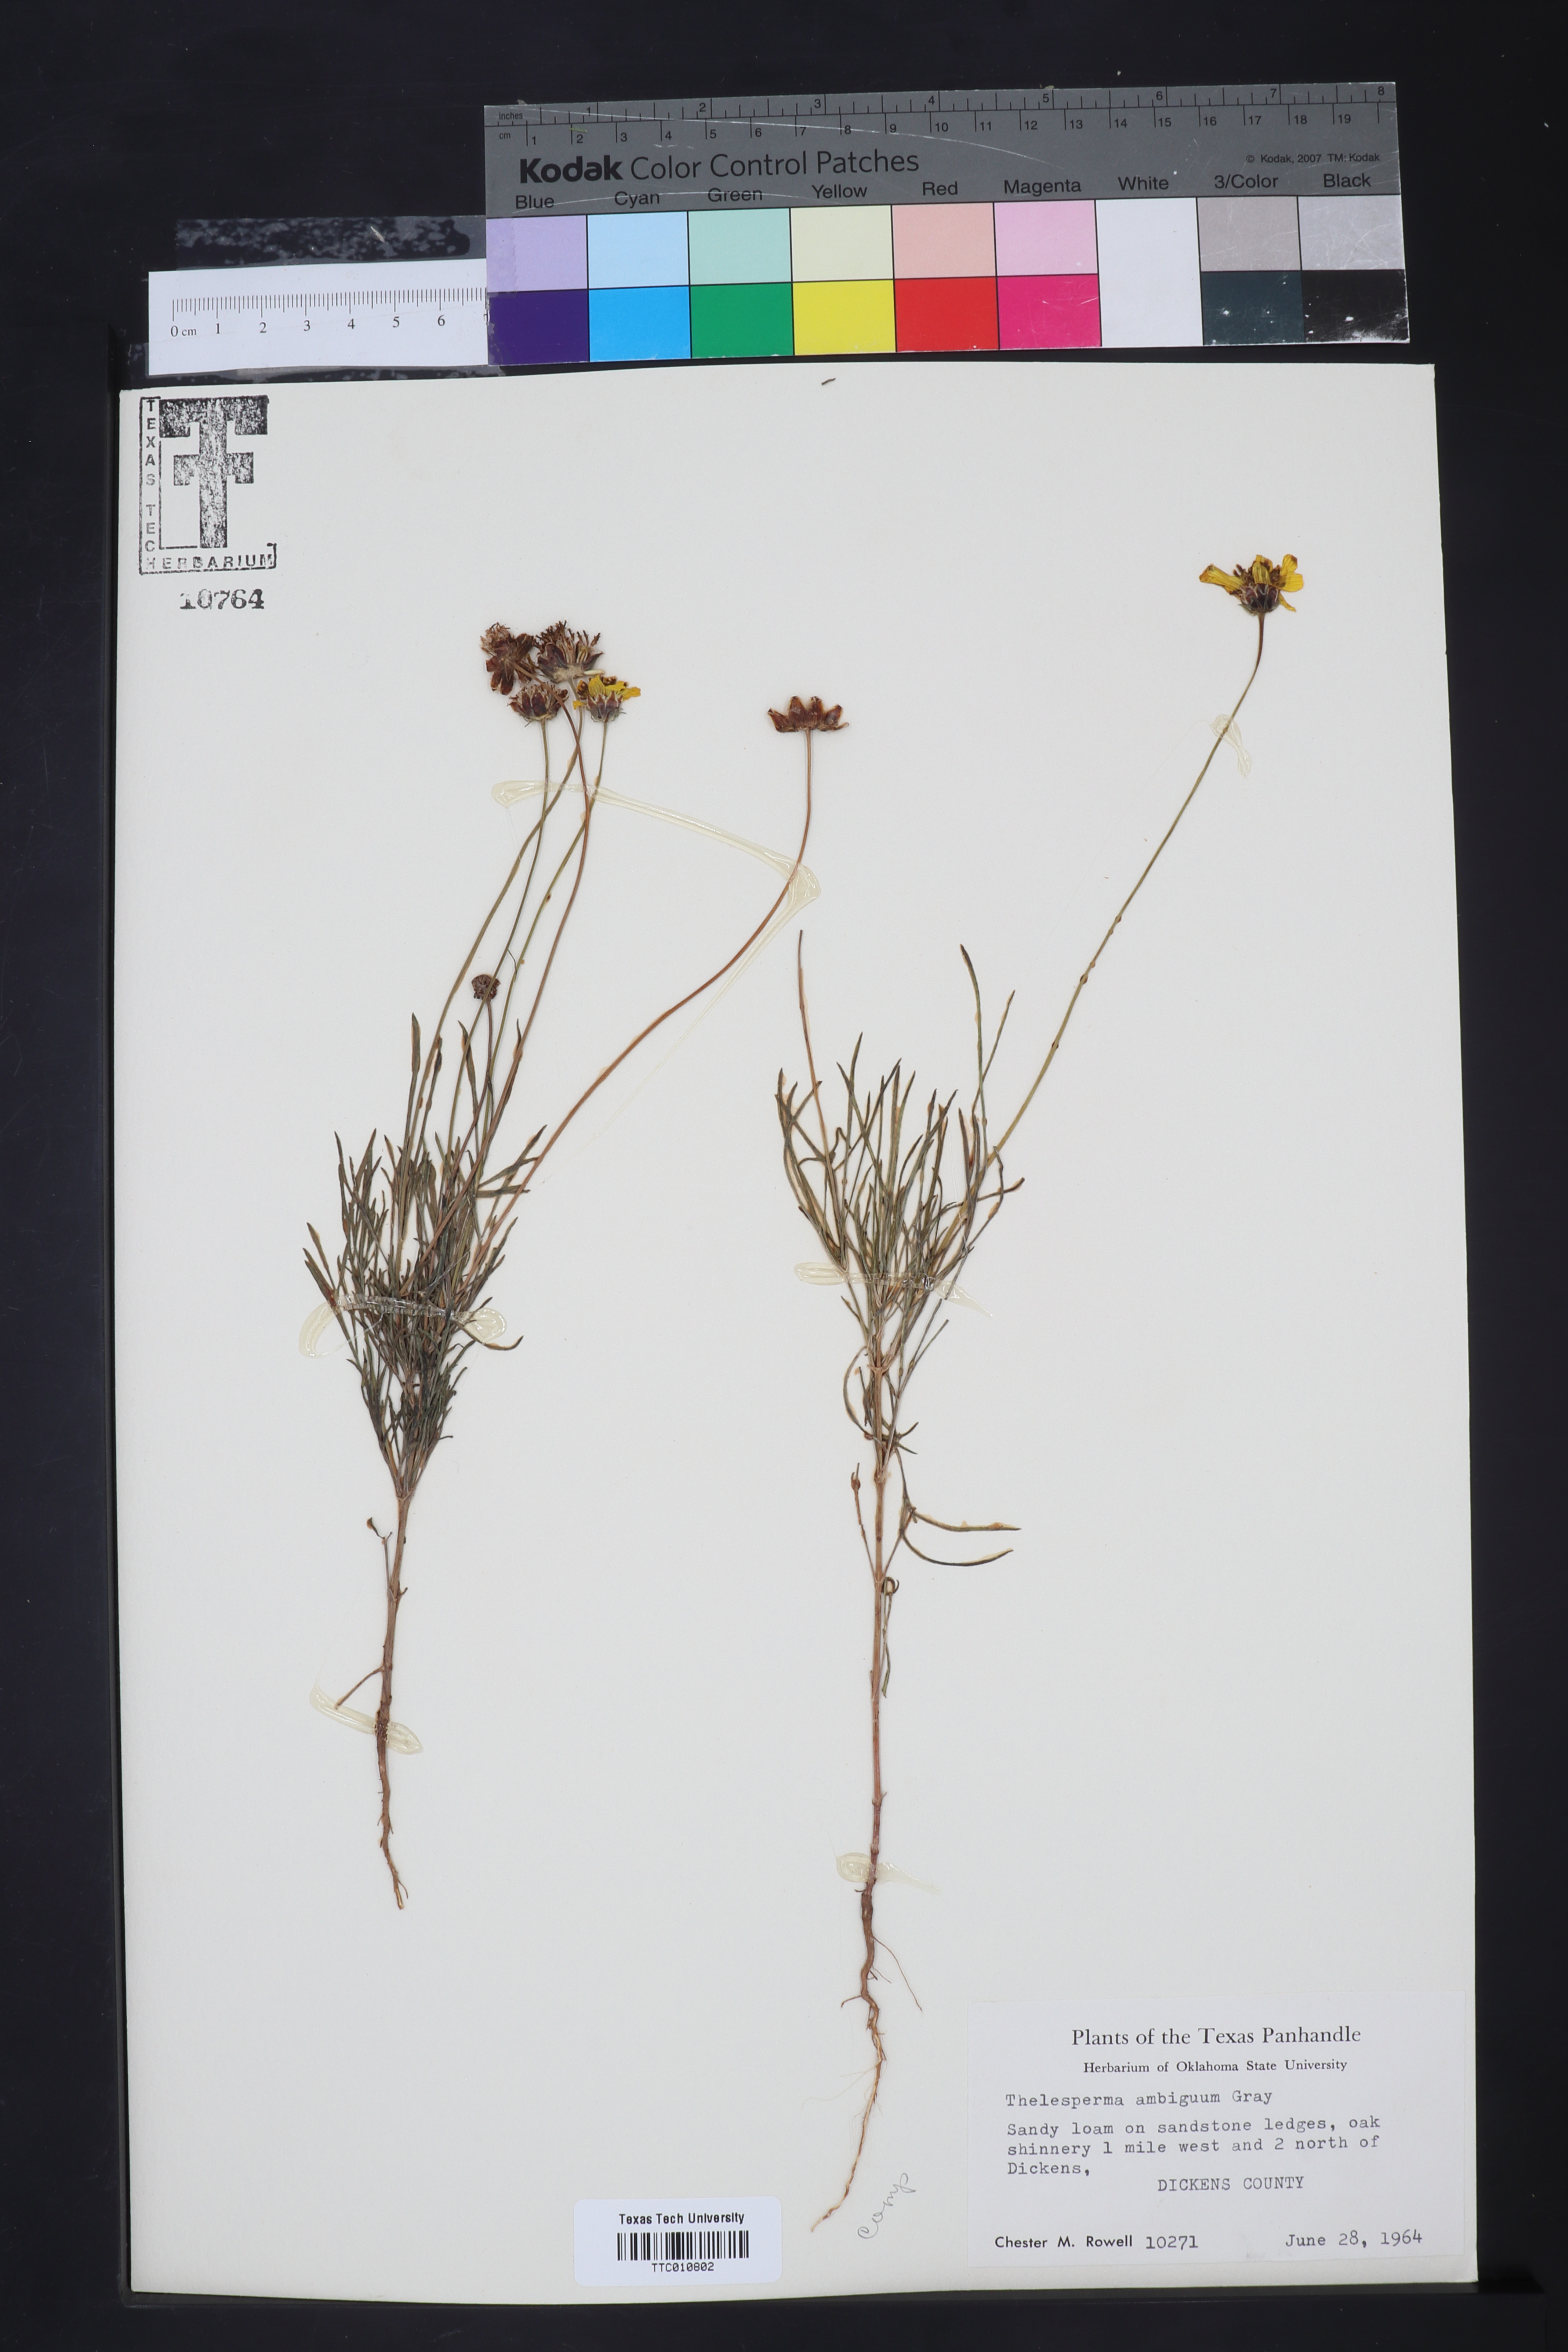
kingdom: Plantae
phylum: Tracheophyta
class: Magnoliopsida
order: Asterales
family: Asteraceae
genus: Thelesperma
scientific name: Thelesperma ambiguum
